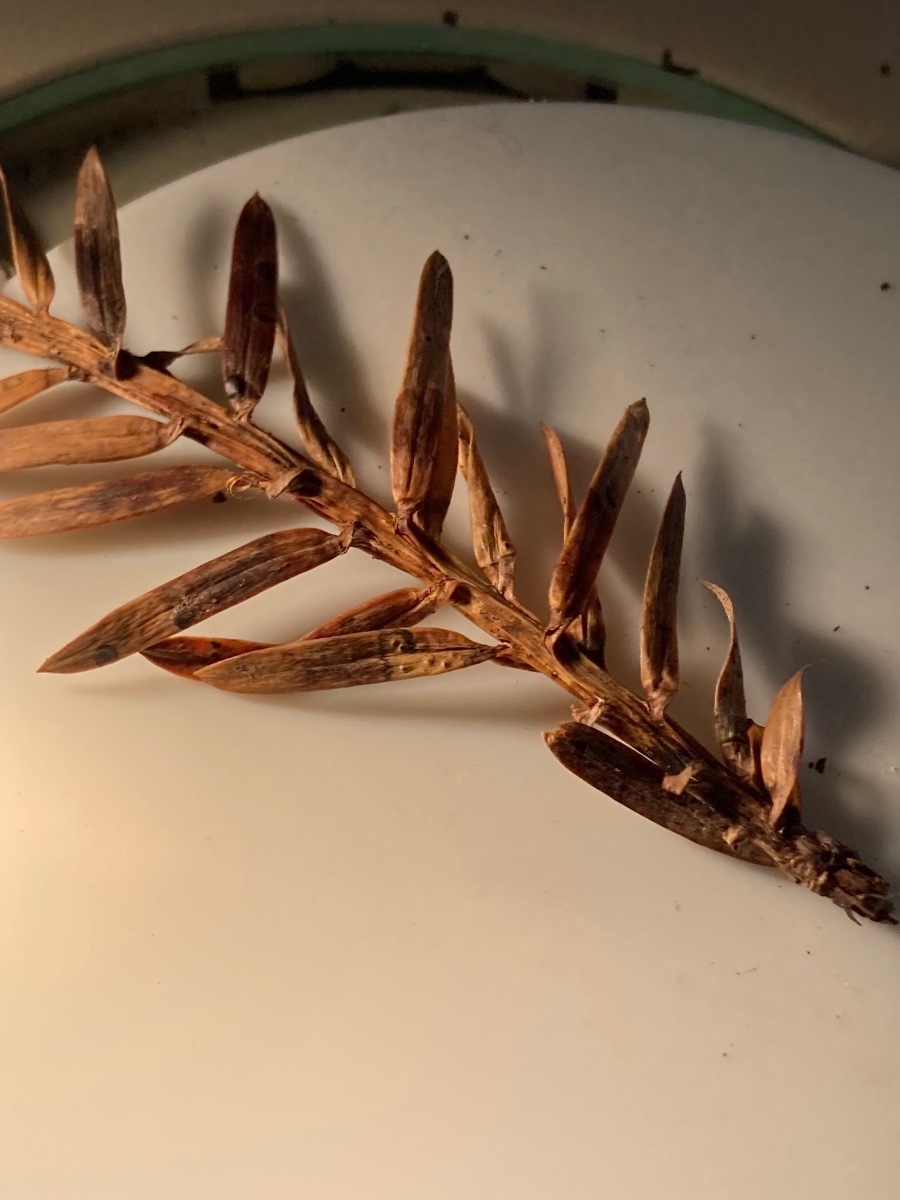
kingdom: Fungi
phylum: Ascomycota
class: Sordariomycetes
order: Diaporthales
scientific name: Diaporthales
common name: kulknippeordenen
